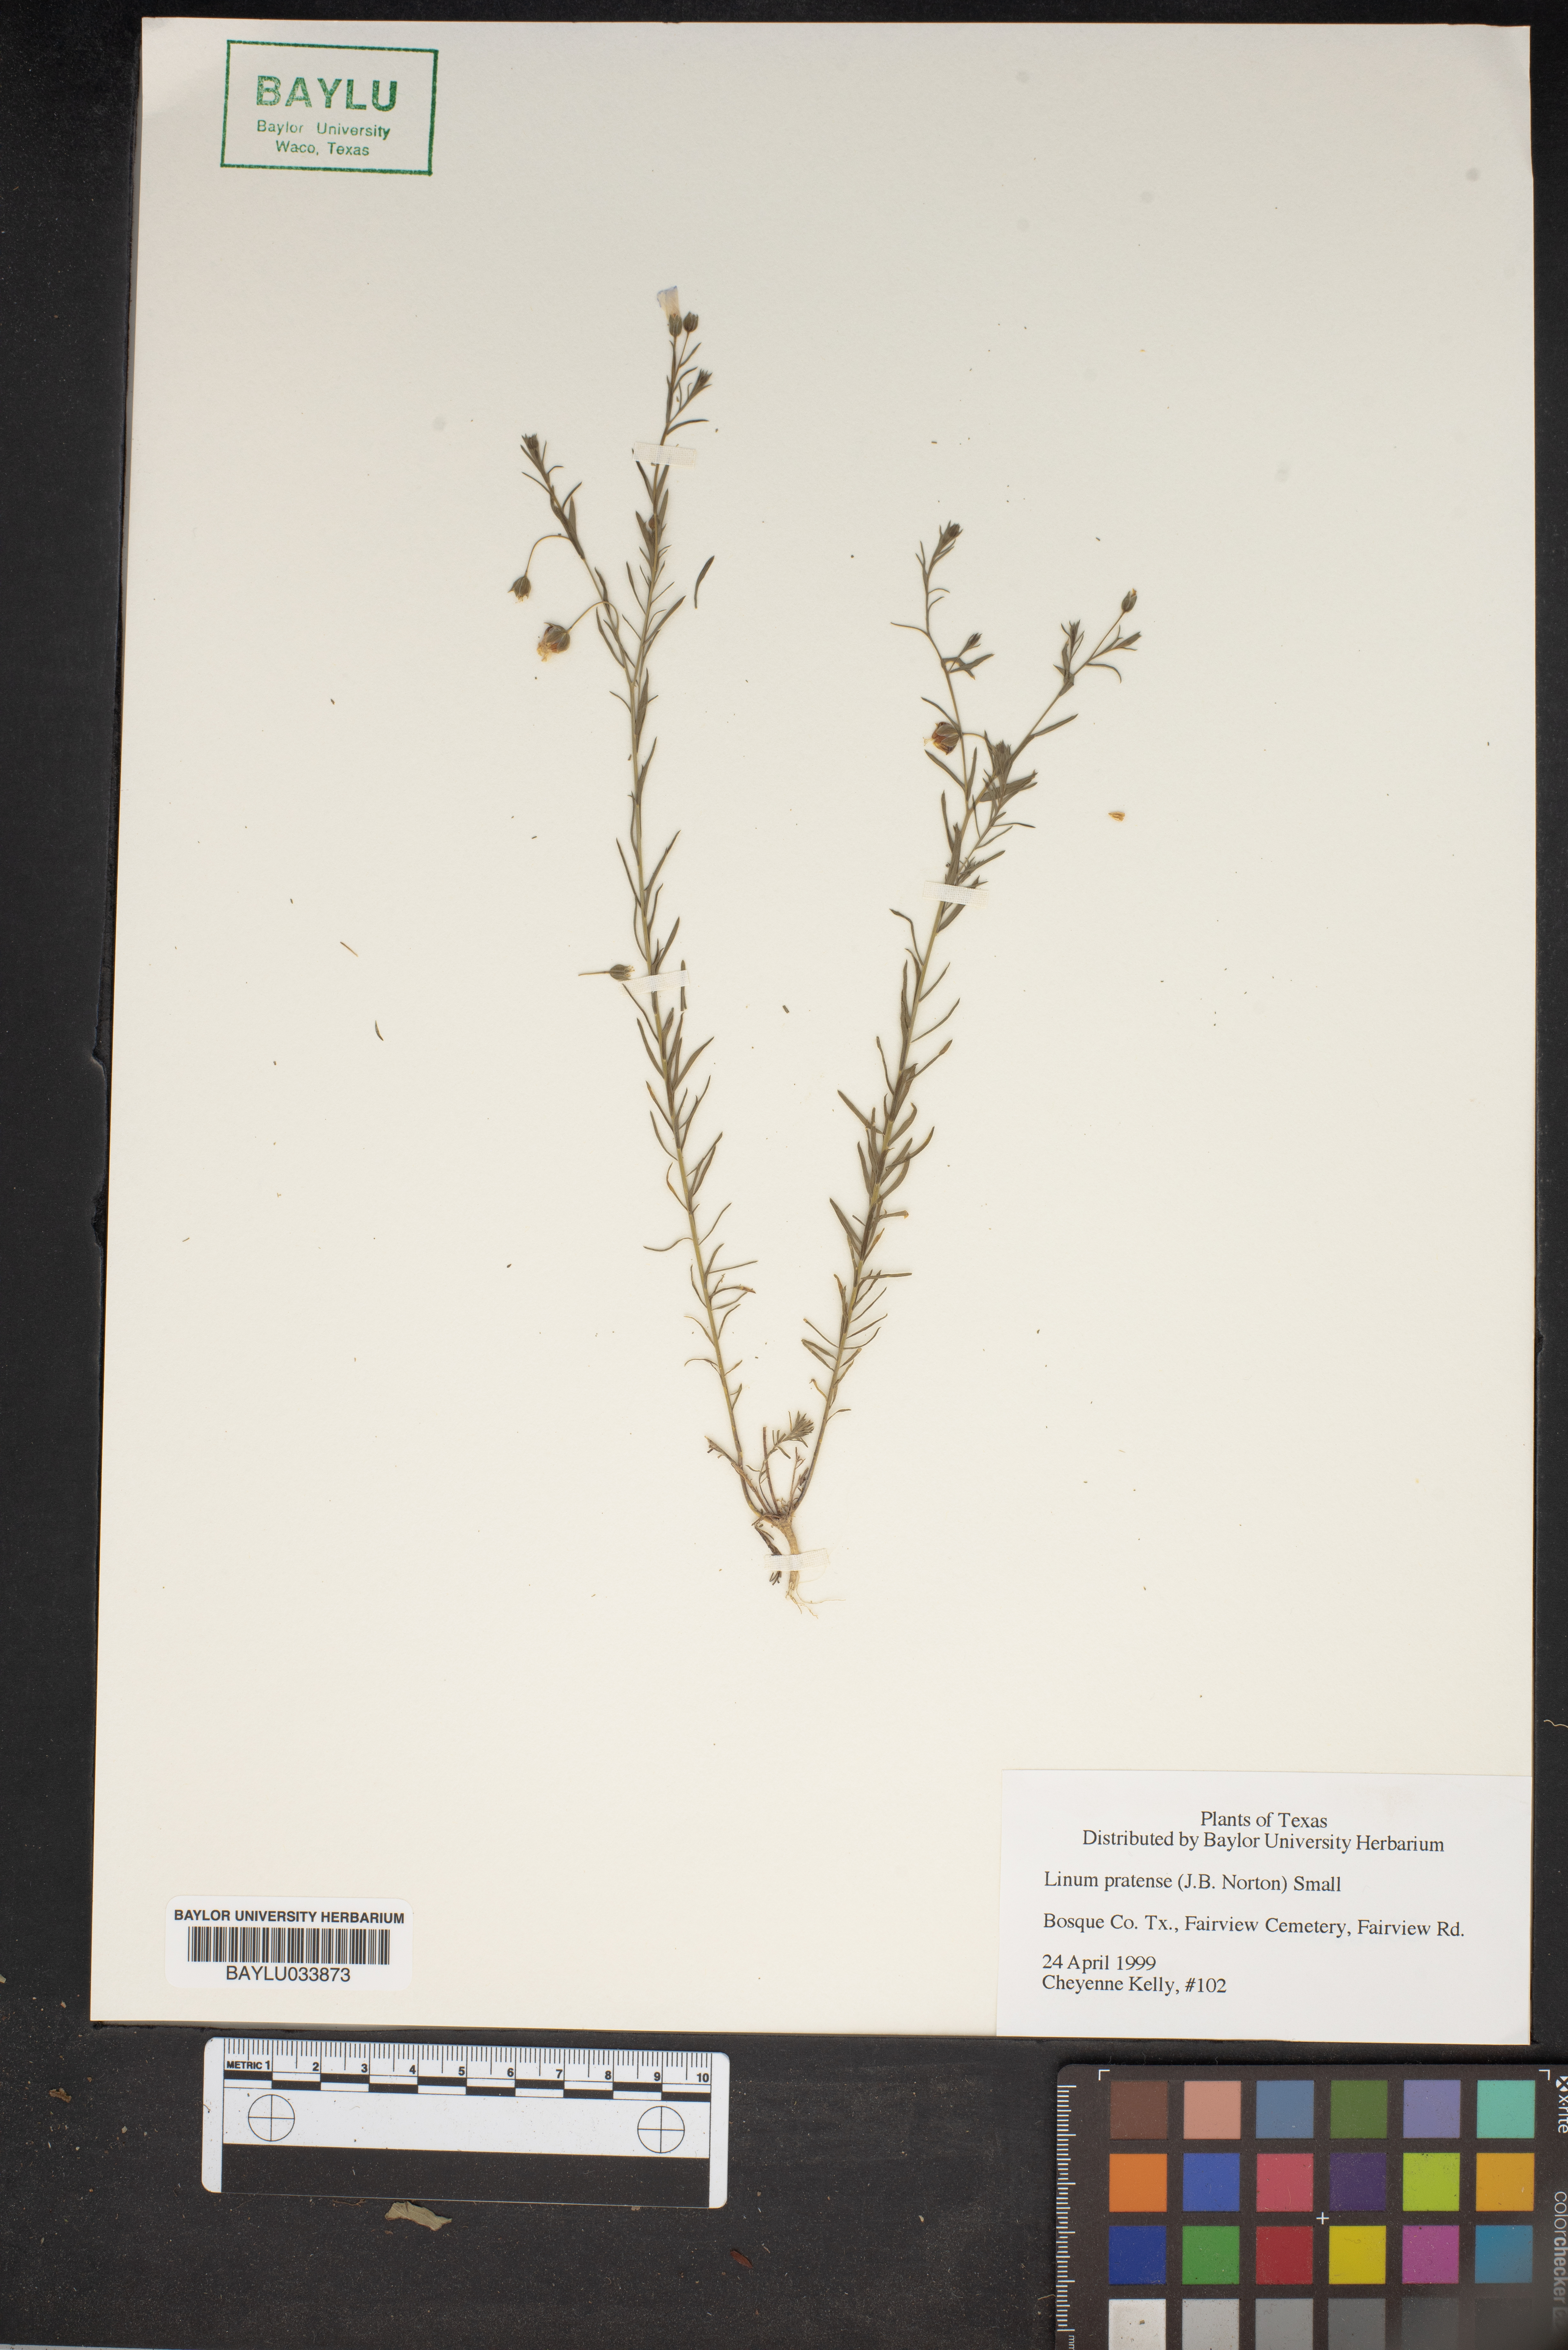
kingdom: Plantae
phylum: Tracheophyta
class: Magnoliopsida
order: Malpighiales
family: Linaceae
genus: Linum
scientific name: Linum pratense
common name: Norton's flax
